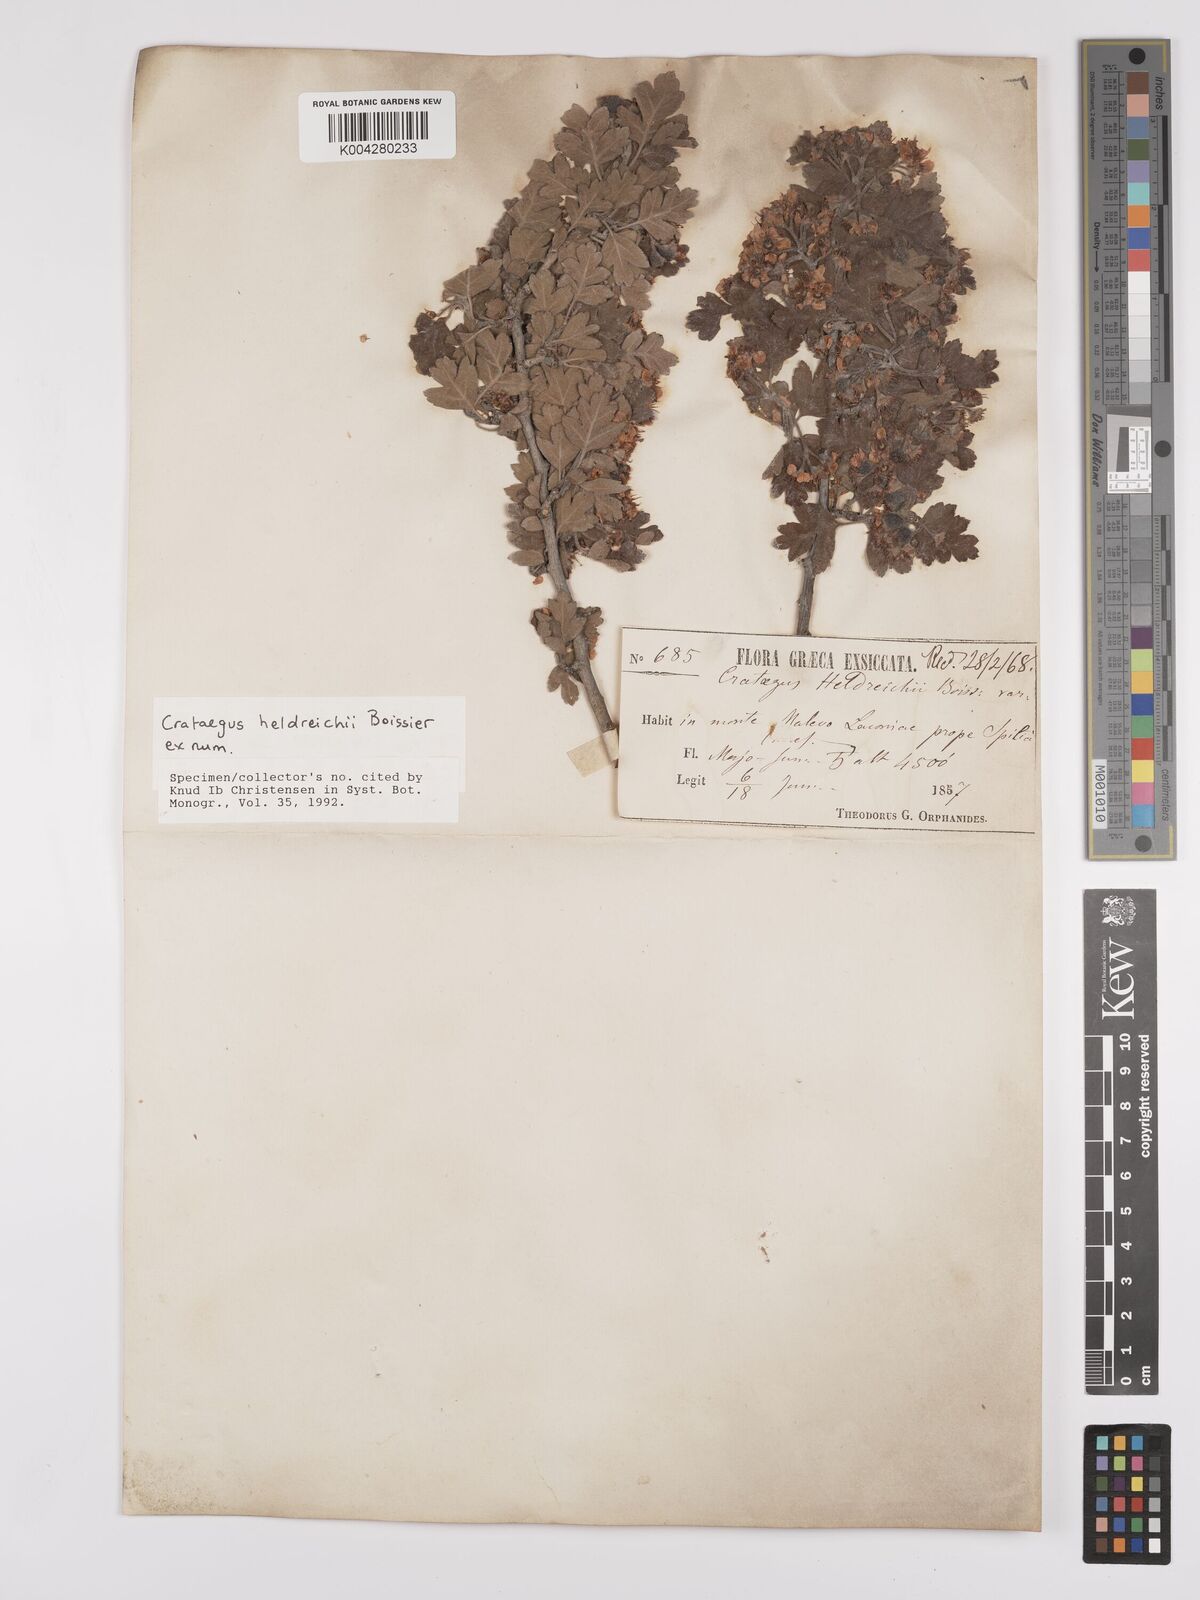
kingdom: Plantae
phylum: Tracheophyta
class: Magnoliopsida
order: Rosales
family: Rosaceae
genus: Crataegus
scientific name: Crataegus heldreichii
